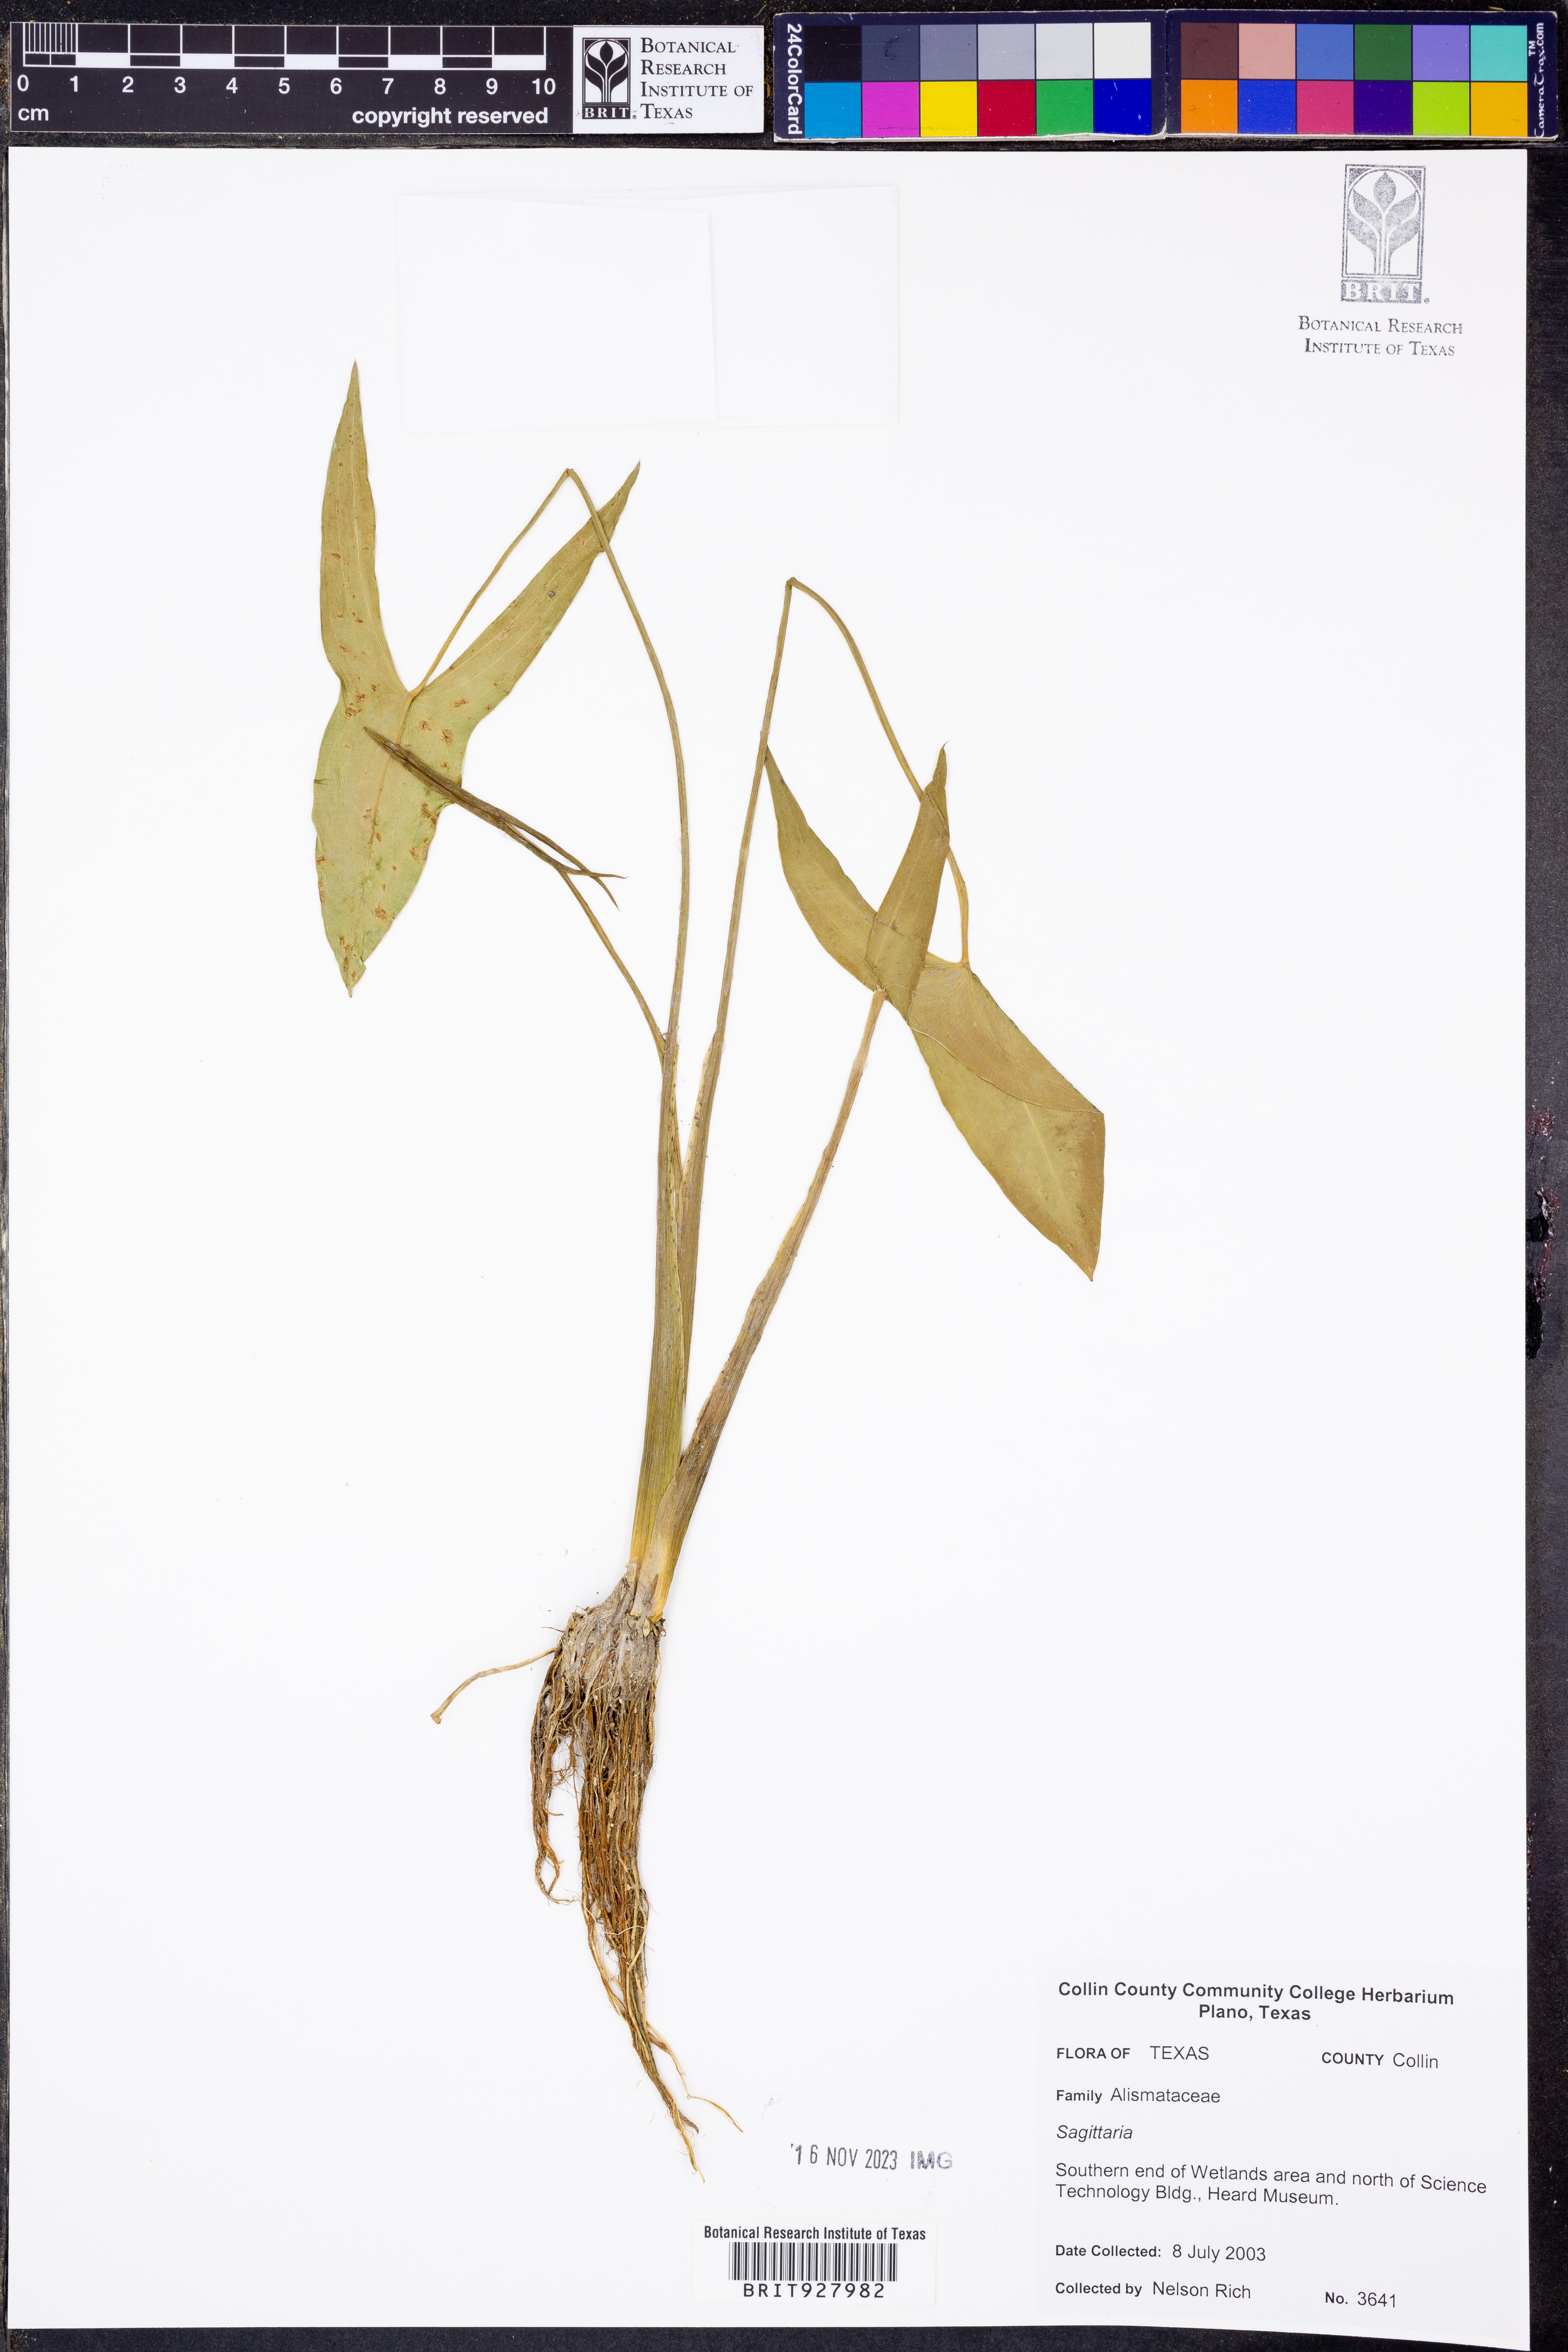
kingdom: Plantae
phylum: Tracheophyta
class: Liliopsida
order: Alismatales
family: Alismataceae
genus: Sagittaria
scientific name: Sagittaria
